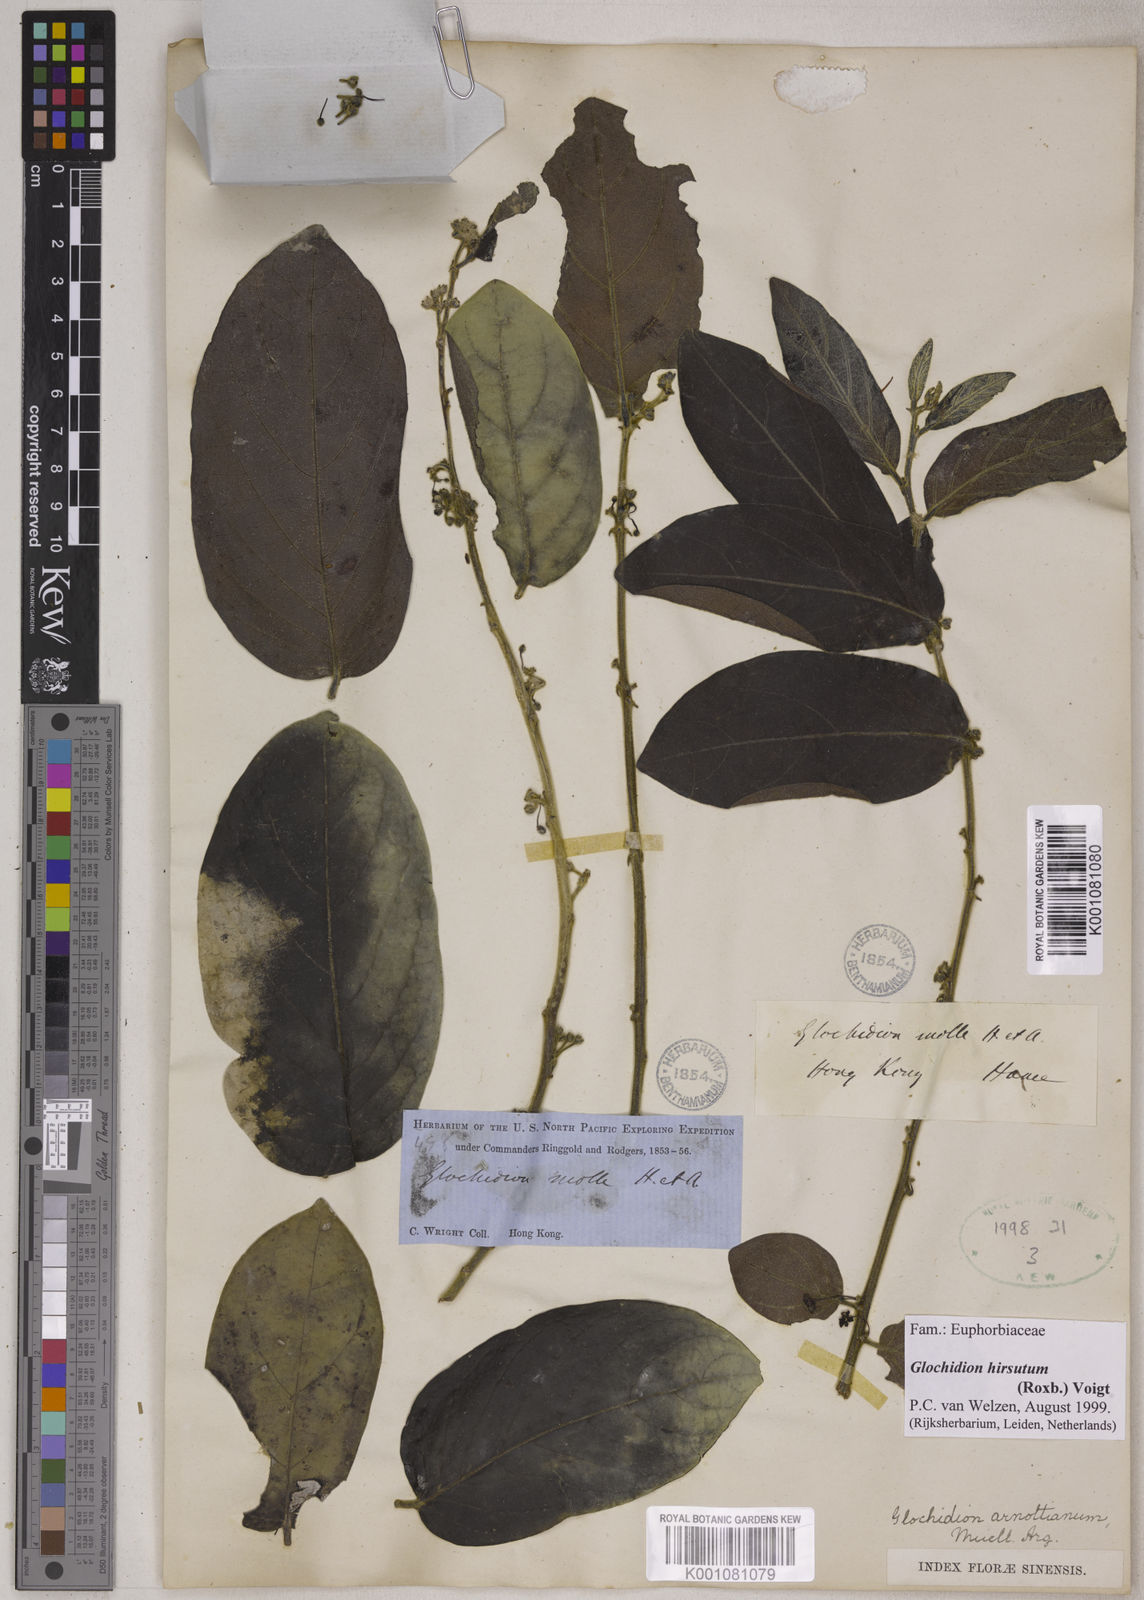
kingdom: Plantae
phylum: Tracheophyta
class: Magnoliopsida
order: Malpighiales
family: Phyllanthaceae
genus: Glochidion
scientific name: Glochidion zeylanicum
